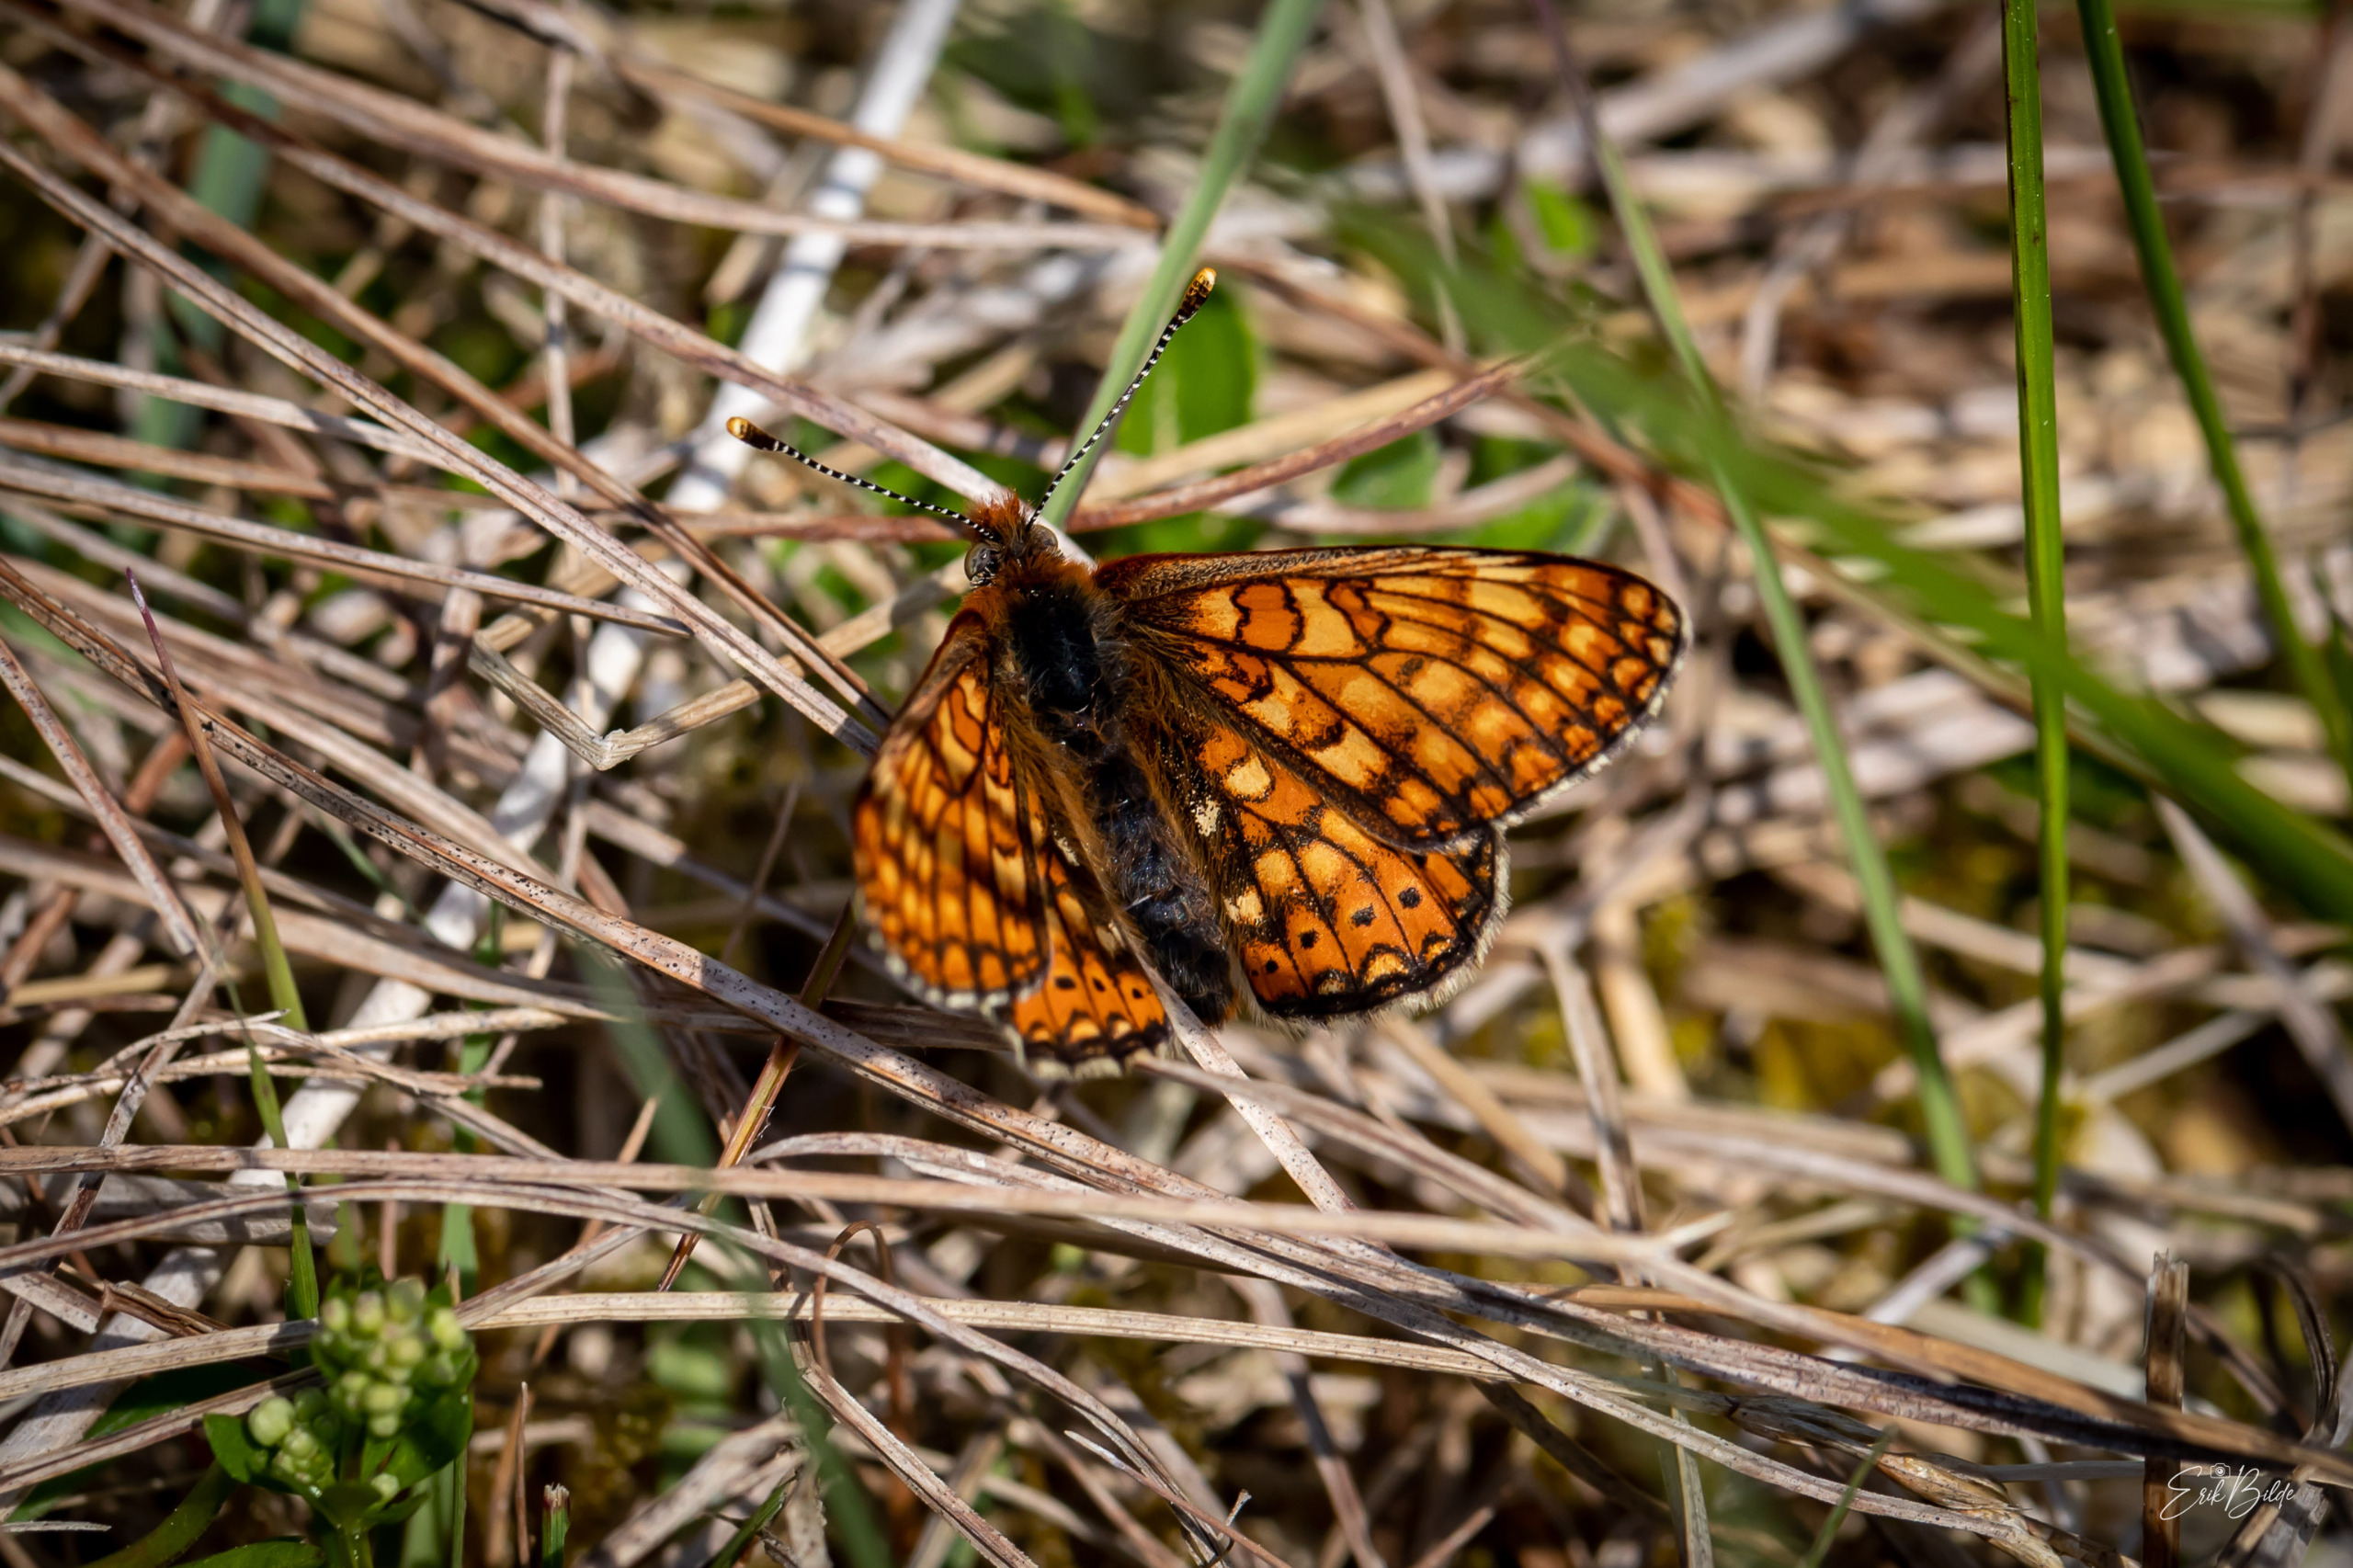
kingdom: Animalia
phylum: Arthropoda
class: Insecta
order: Lepidoptera
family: Nymphalidae
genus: Euphydryas
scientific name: Euphydryas aurinia
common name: Hedepletvinge
